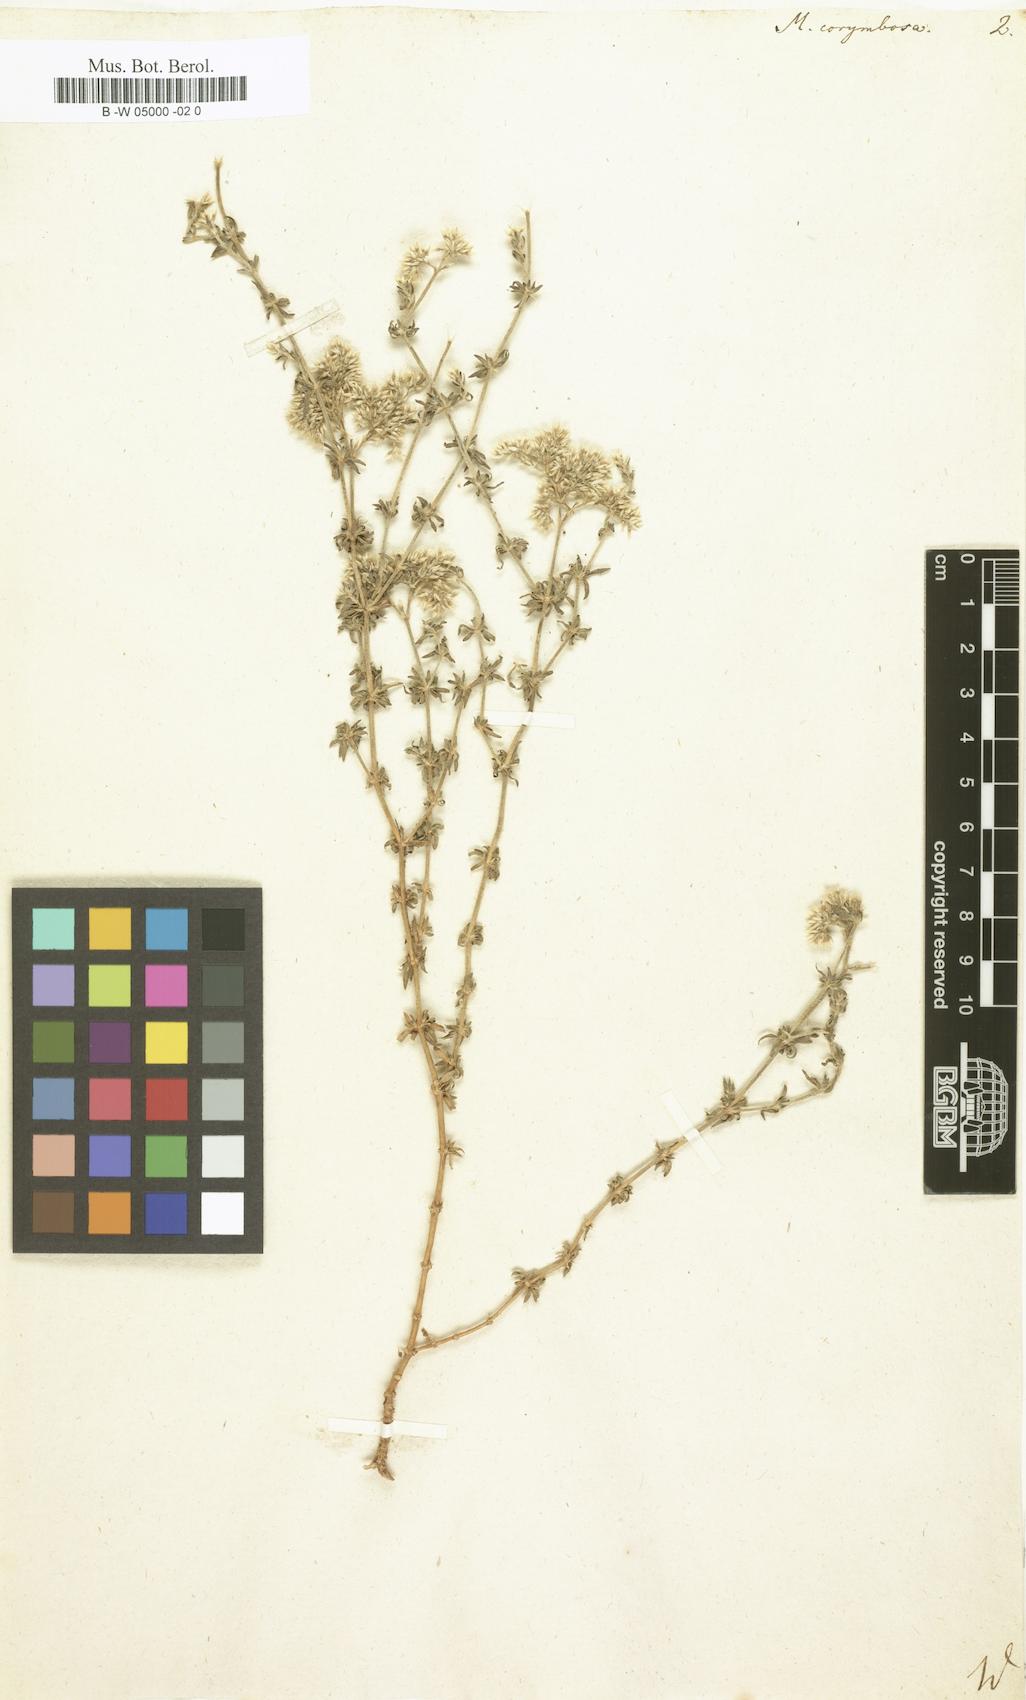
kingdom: Plantae
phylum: Tracheophyta
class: Magnoliopsida
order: Caryophyllales
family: Caryophyllaceae
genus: Polycarpaea
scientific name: Polycarpaea corymbosa
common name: Oldman's cap
